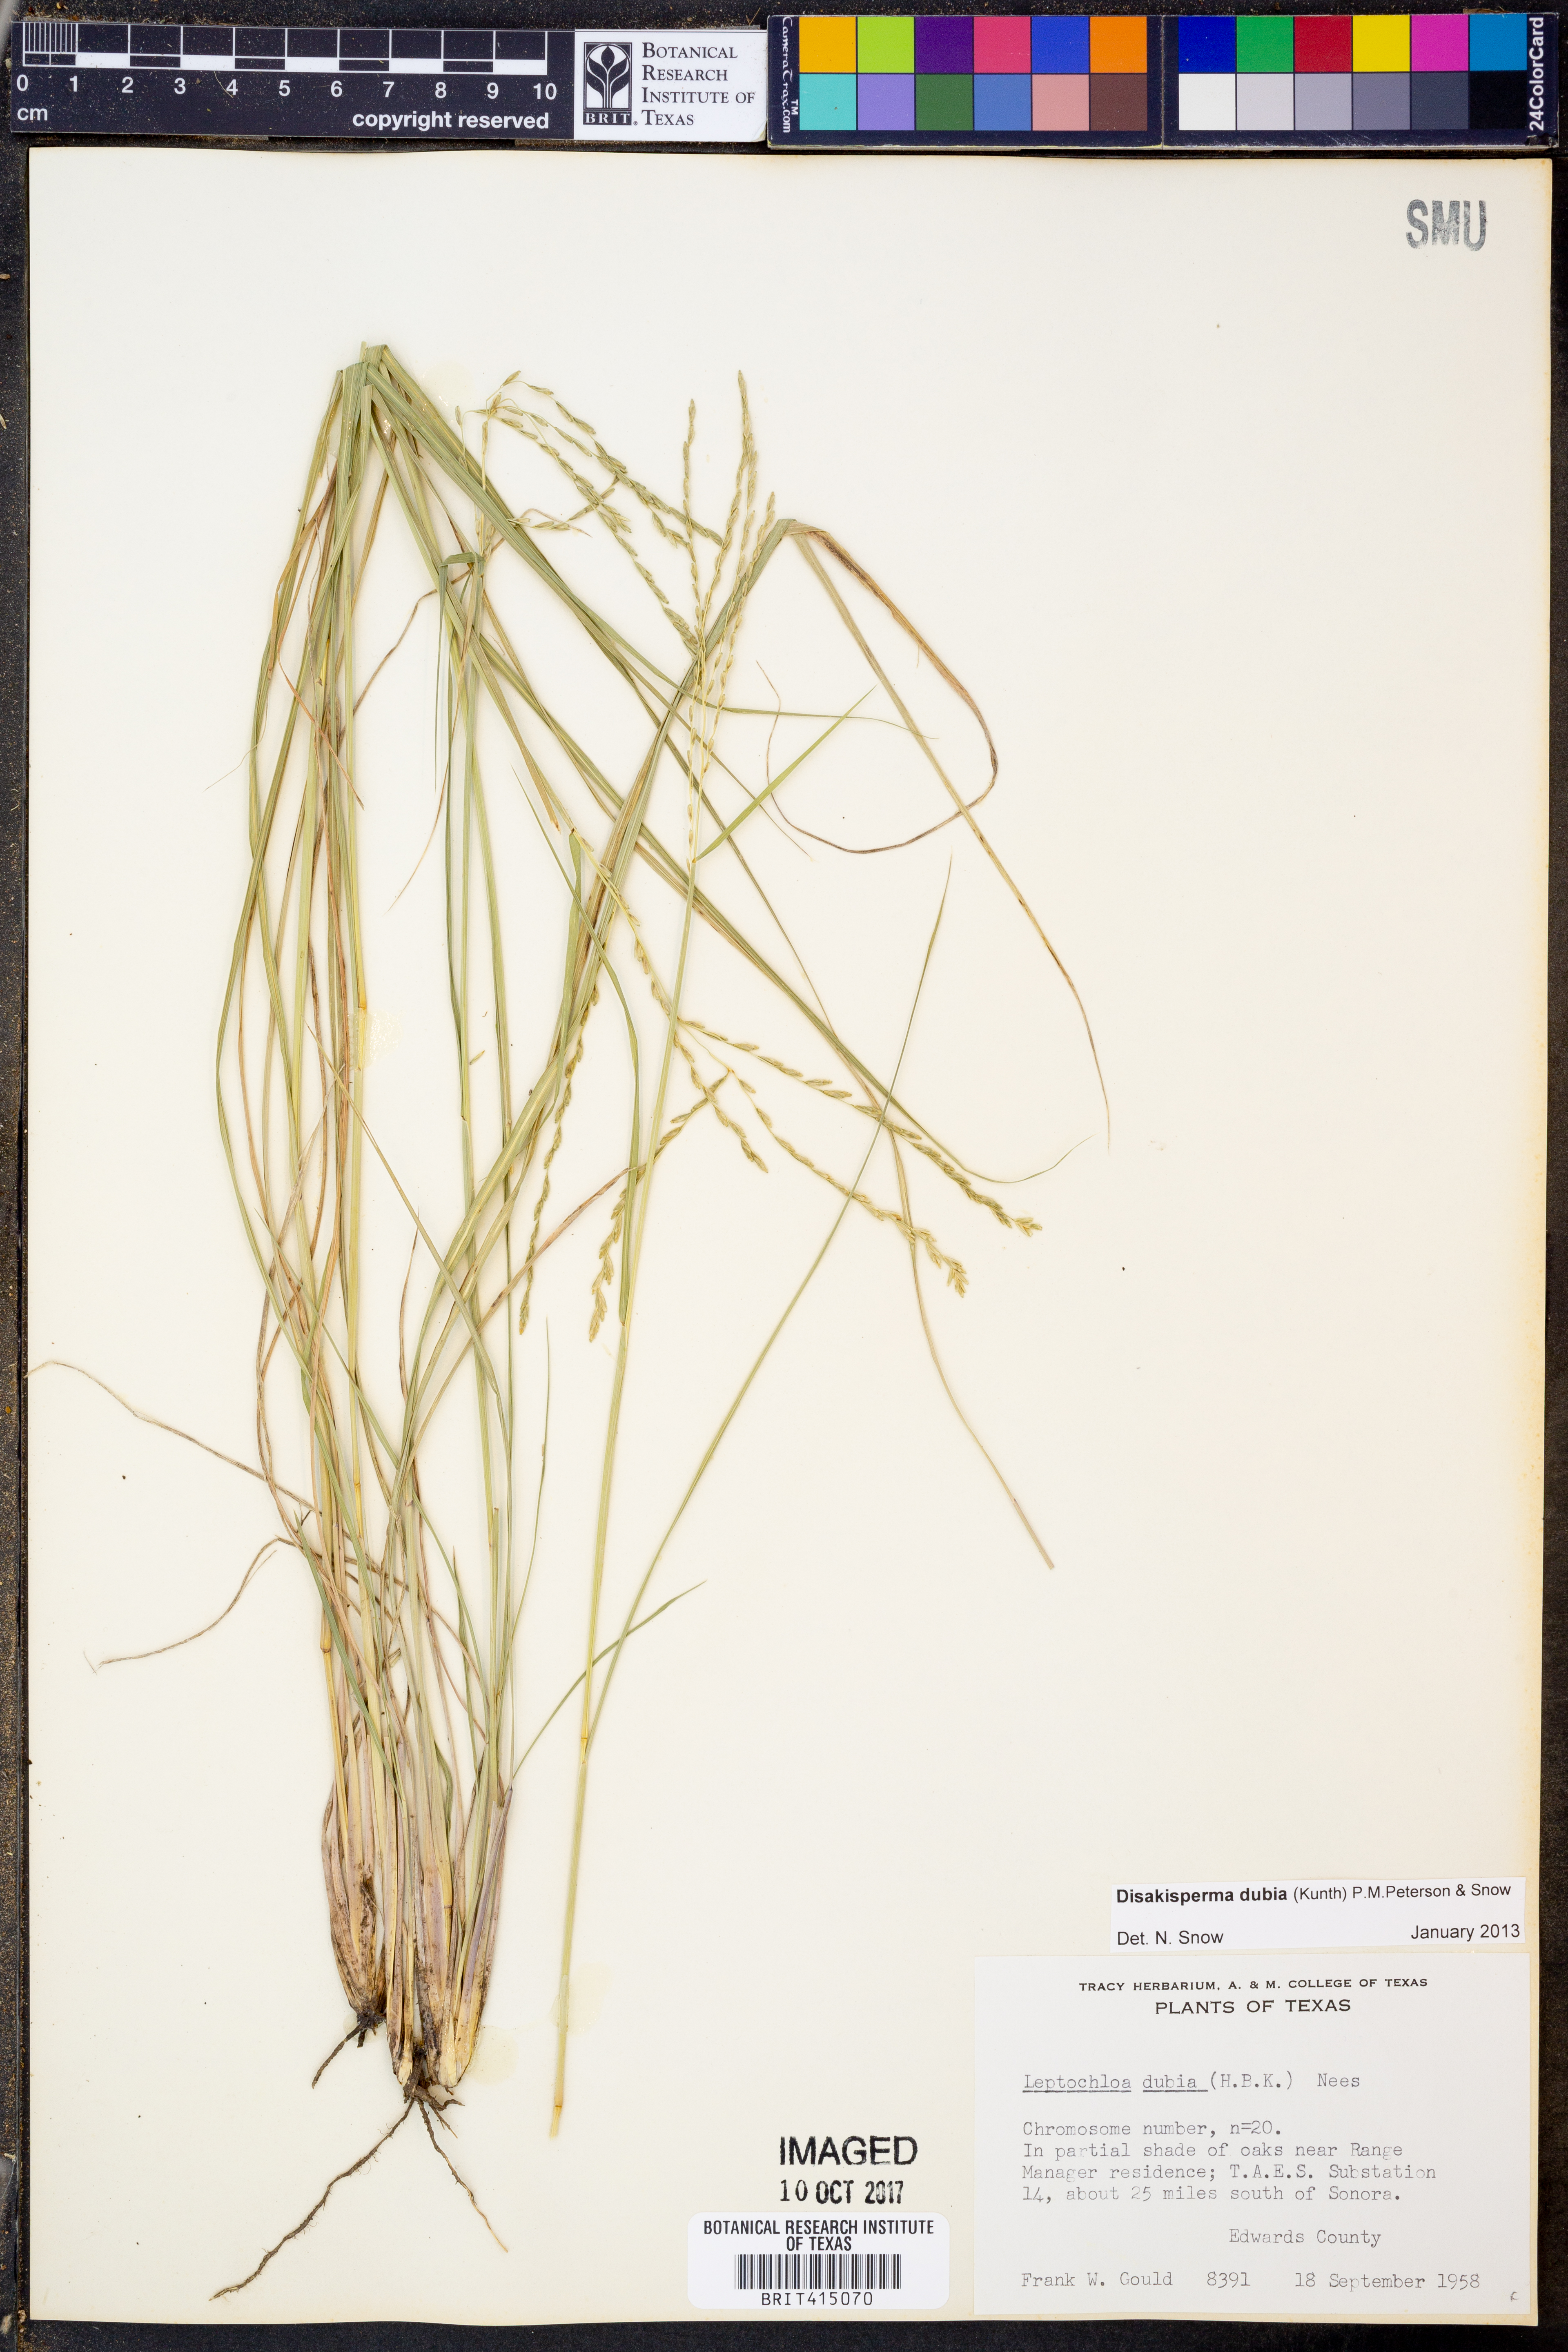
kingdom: Plantae
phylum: Tracheophyta
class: Liliopsida
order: Poales
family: Poaceae
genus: Disakisperma
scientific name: Disakisperma dubium
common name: Green sprangletop
